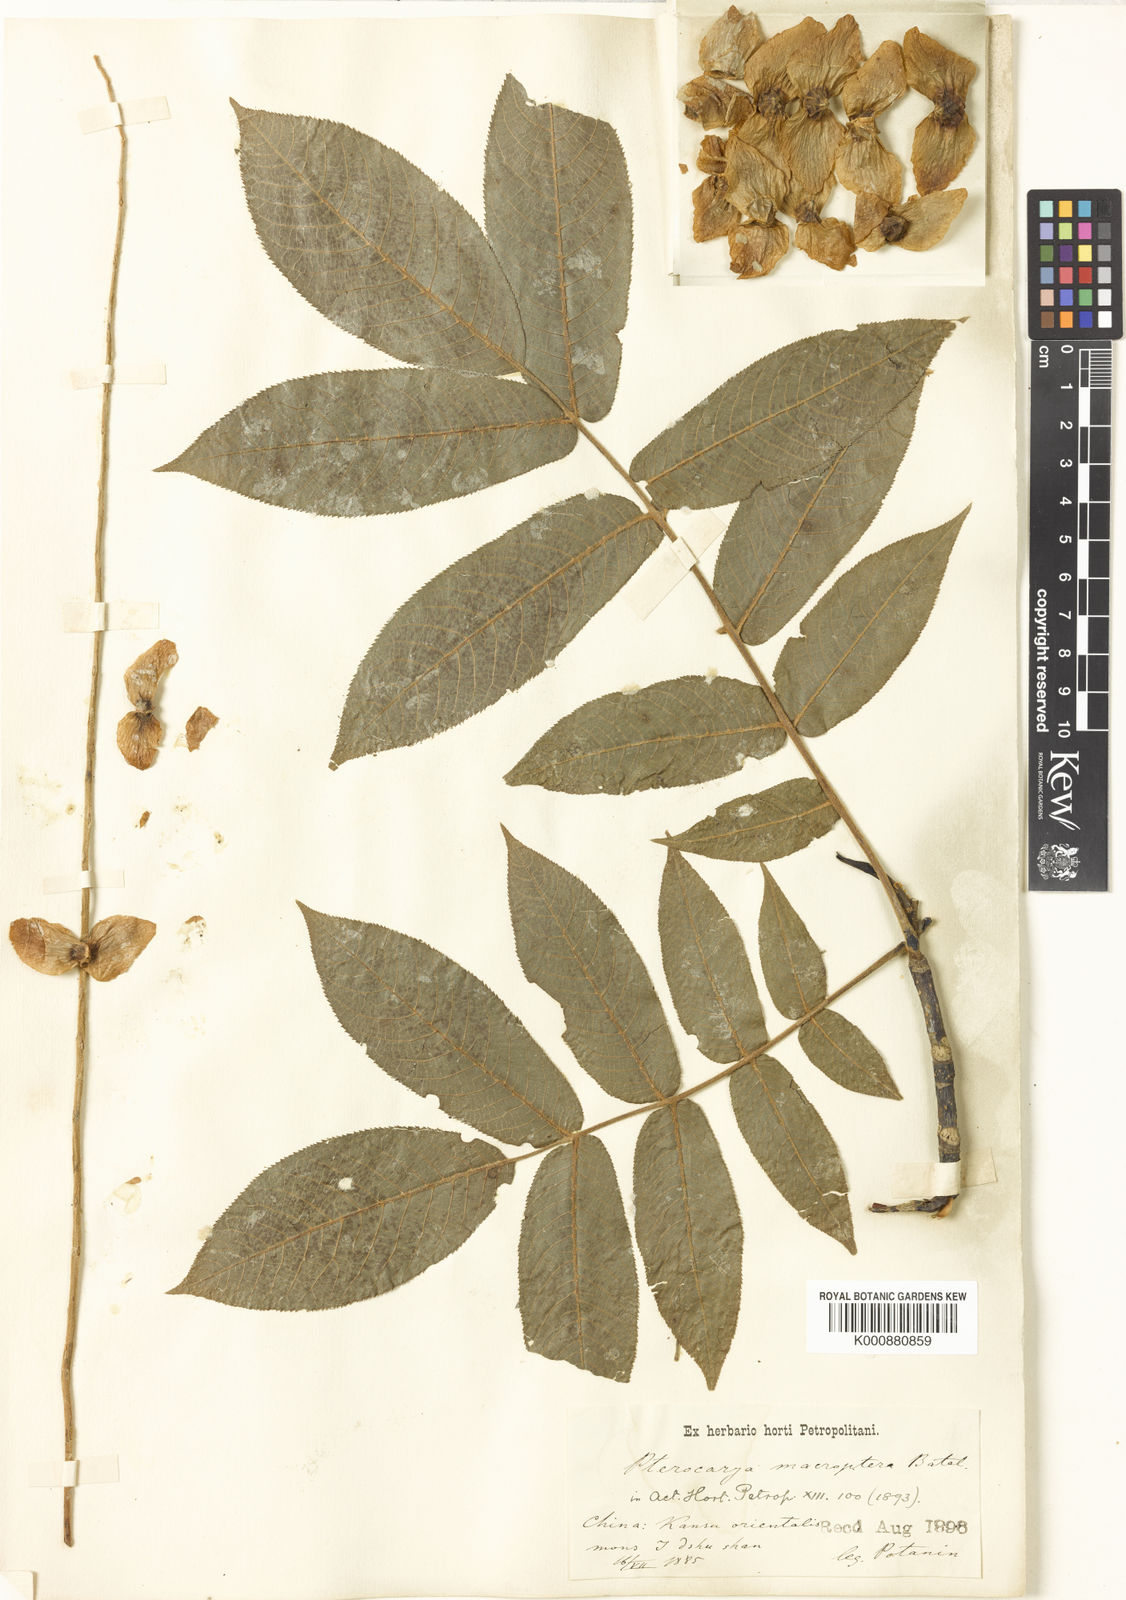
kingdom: Plantae
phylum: Tracheophyta
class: Magnoliopsida
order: Fagales
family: Juglandaceae
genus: Pterocarya
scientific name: Pterocarya macroptera
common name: Large-winged wingnut
